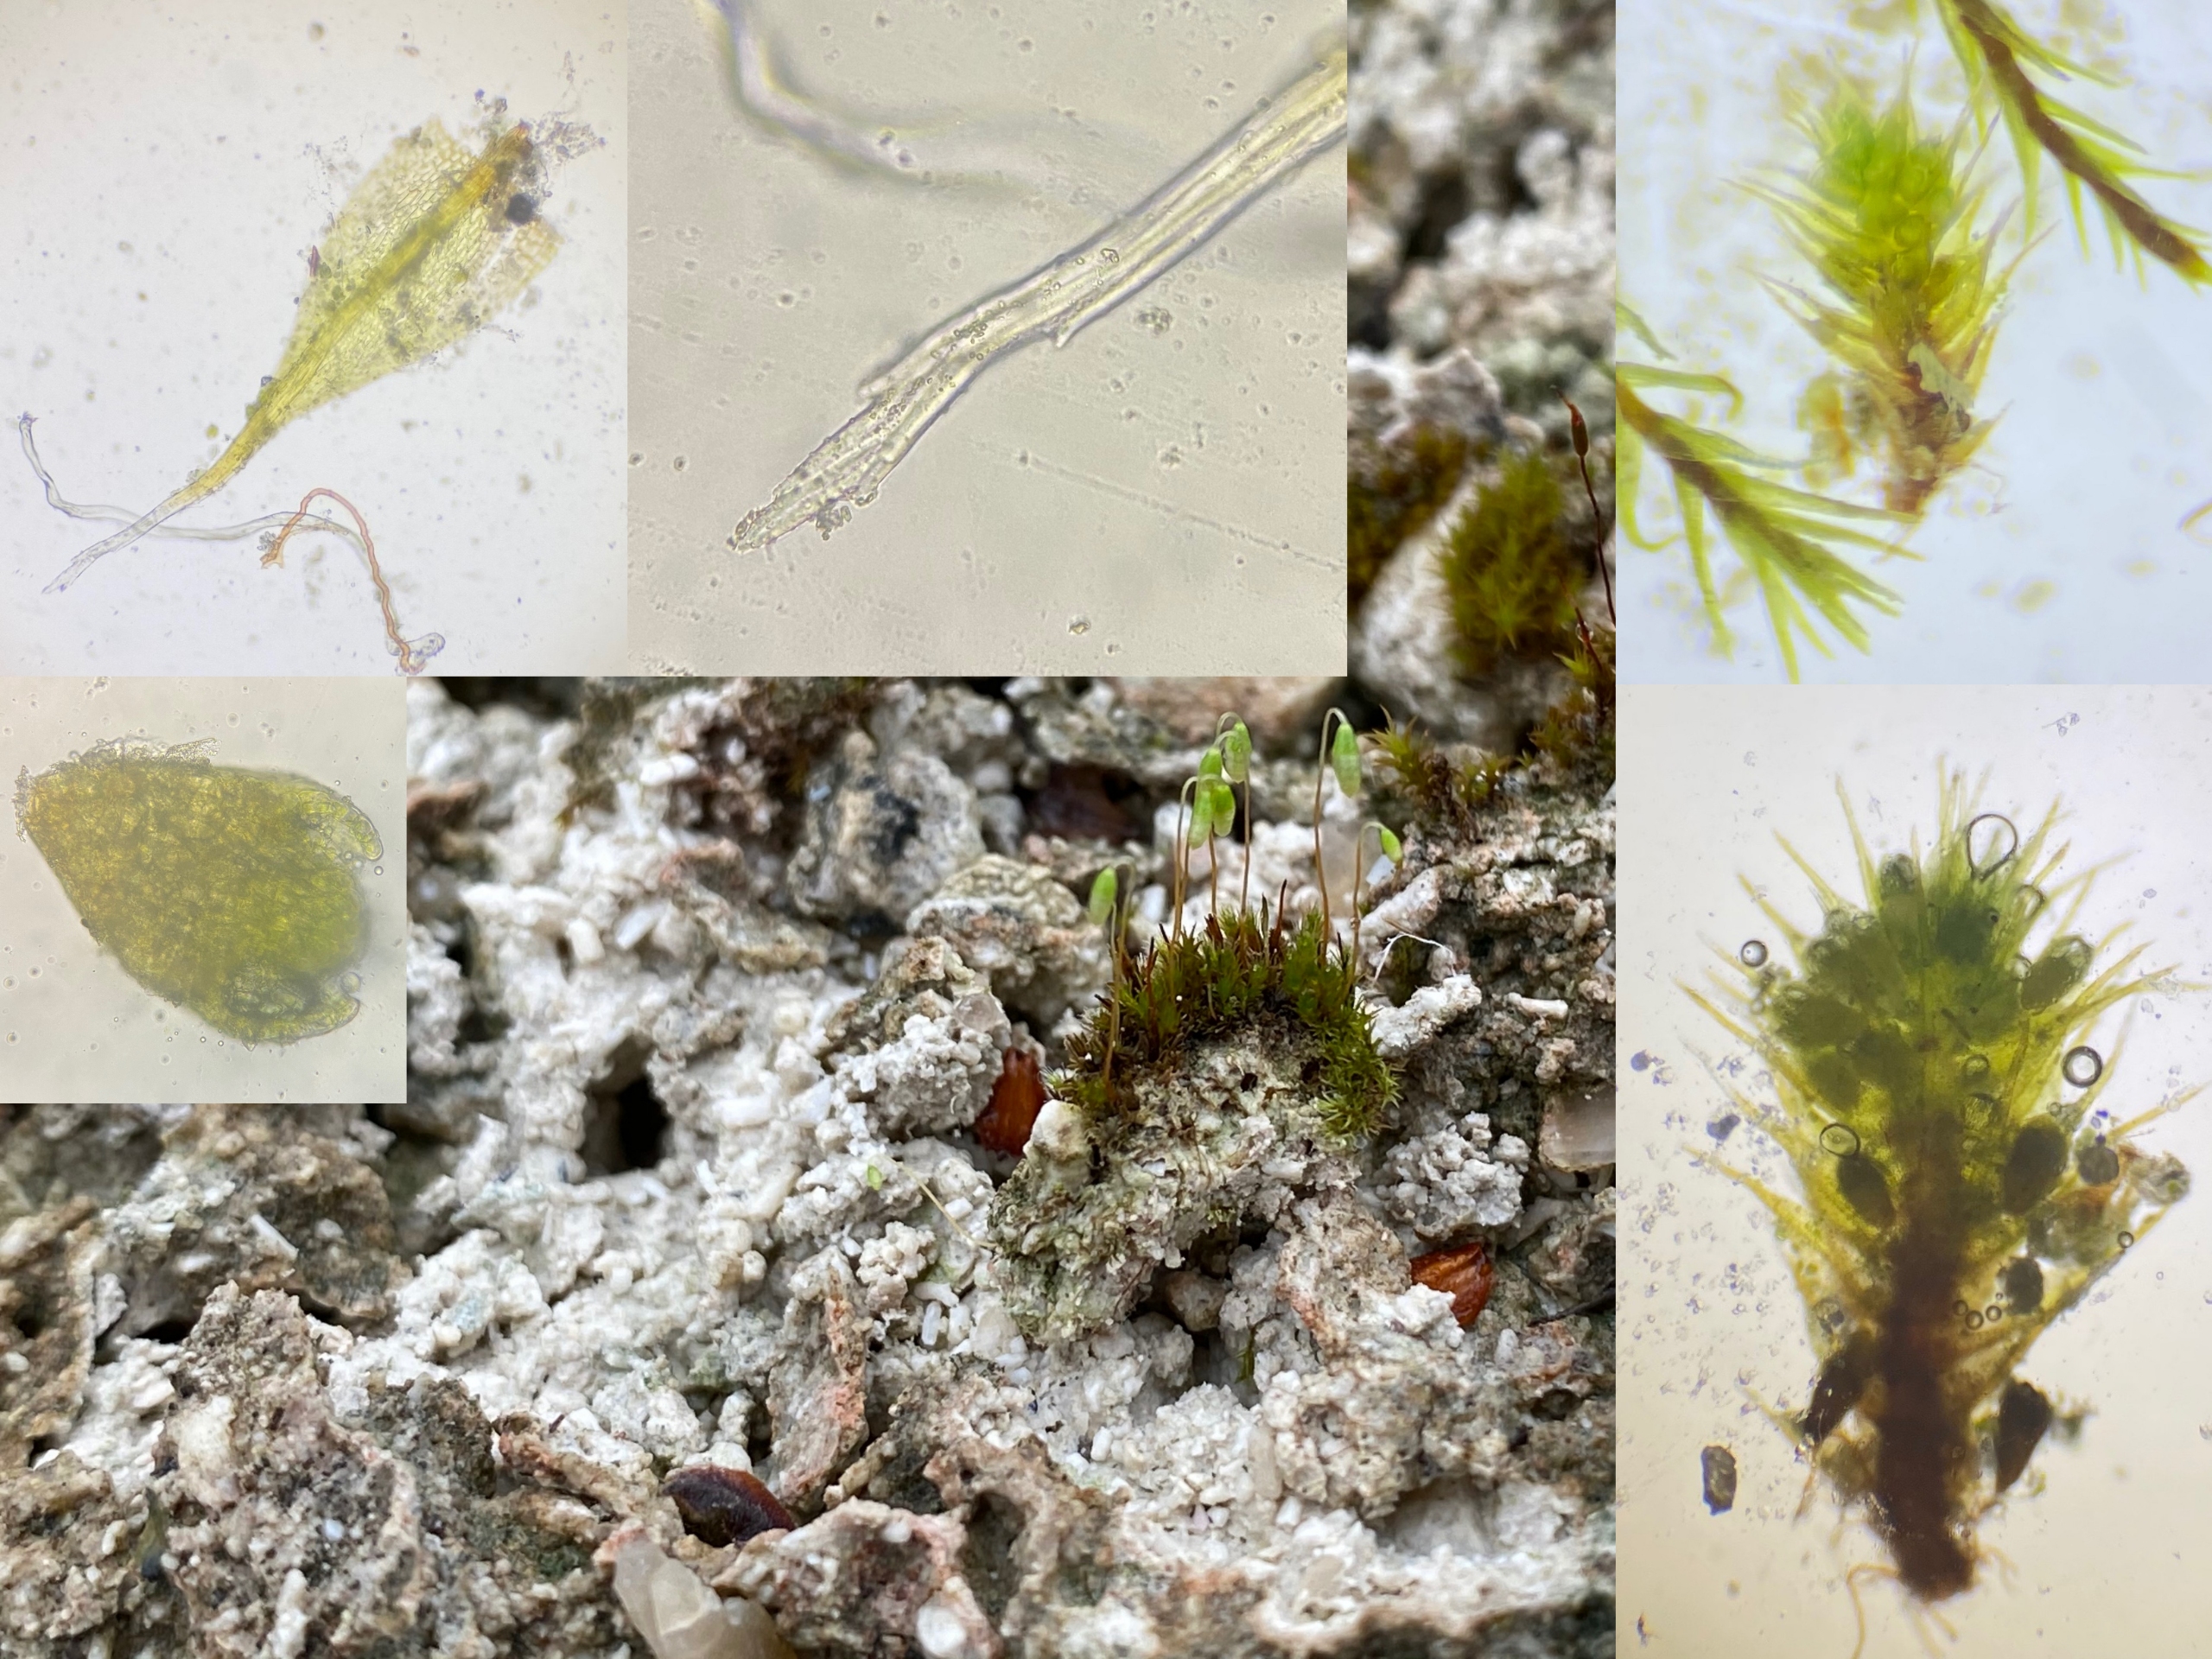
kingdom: Plantae
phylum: Bryophyta
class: Bryopsida
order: Bryales
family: Bryaceae
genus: Gemmabryum
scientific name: Gemmabryum dichotomum
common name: Dværg-bryum
